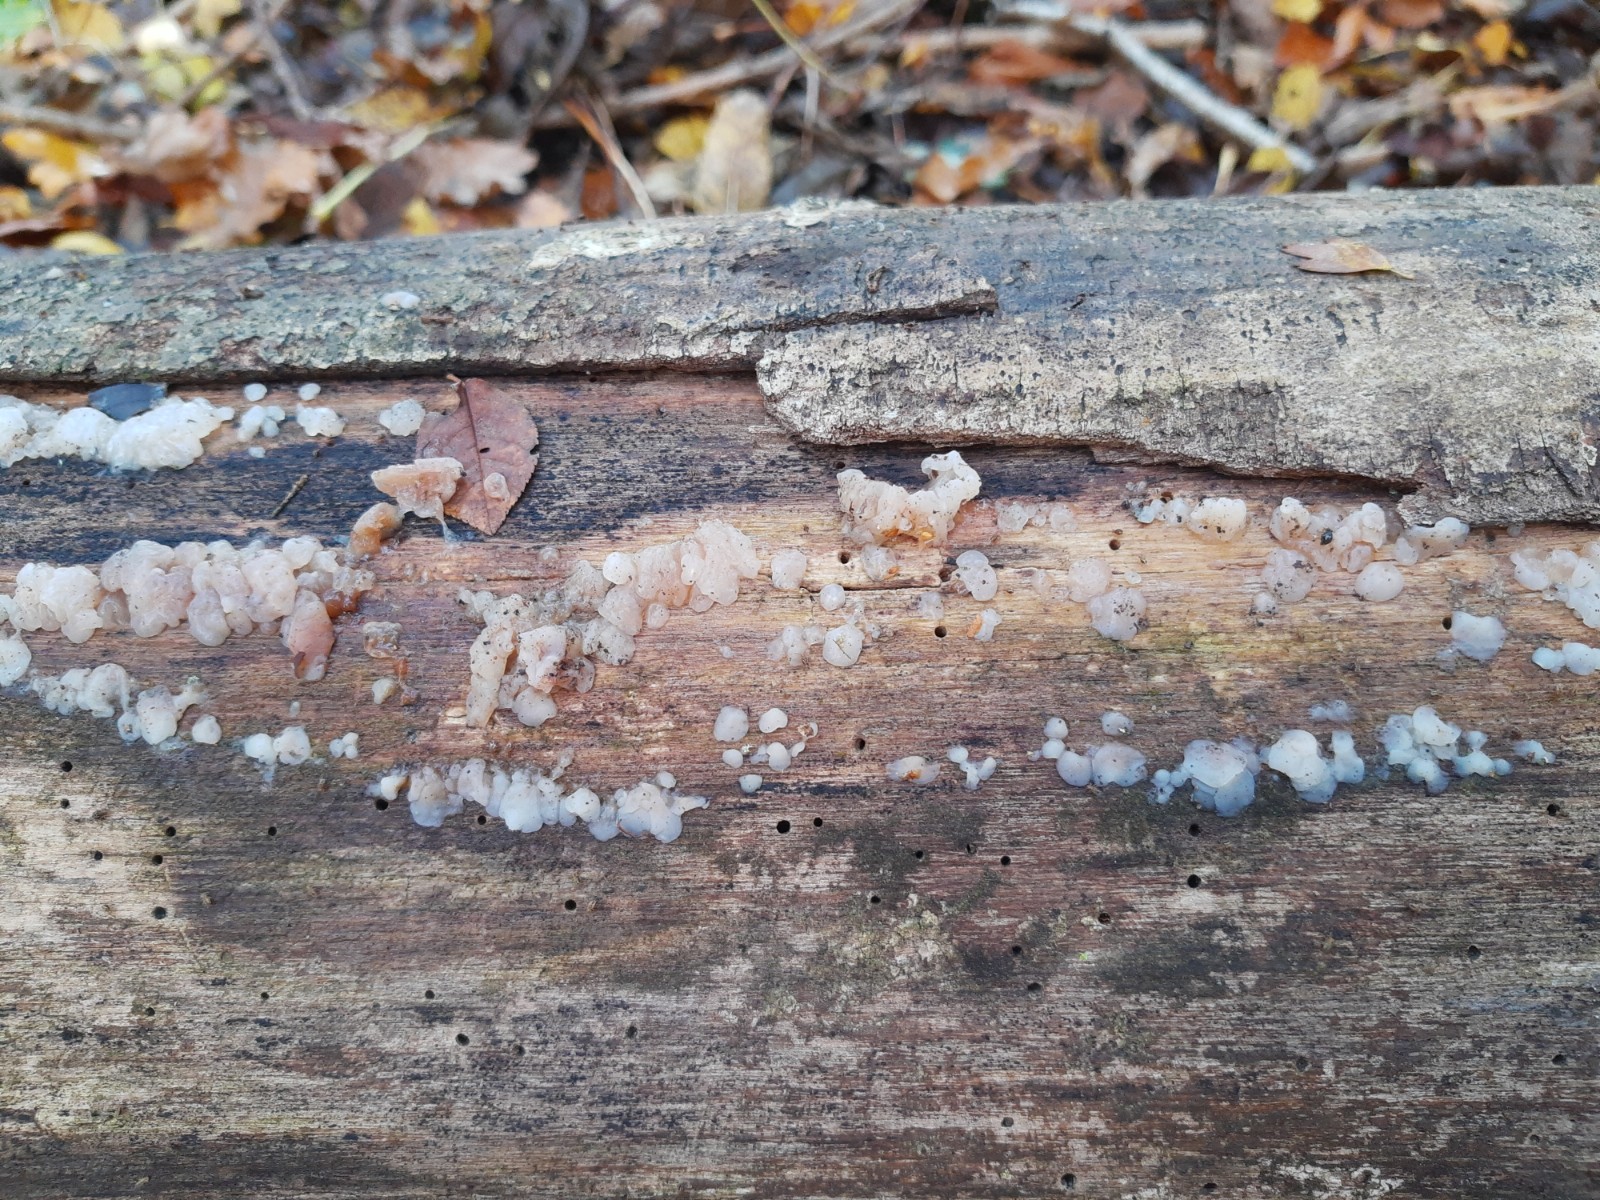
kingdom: Fungi
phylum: Basidiomycota
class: Agaricomycetes
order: Auriculariales
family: Auriculariaceae
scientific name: Auriculariaceae
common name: judasørefamilien
